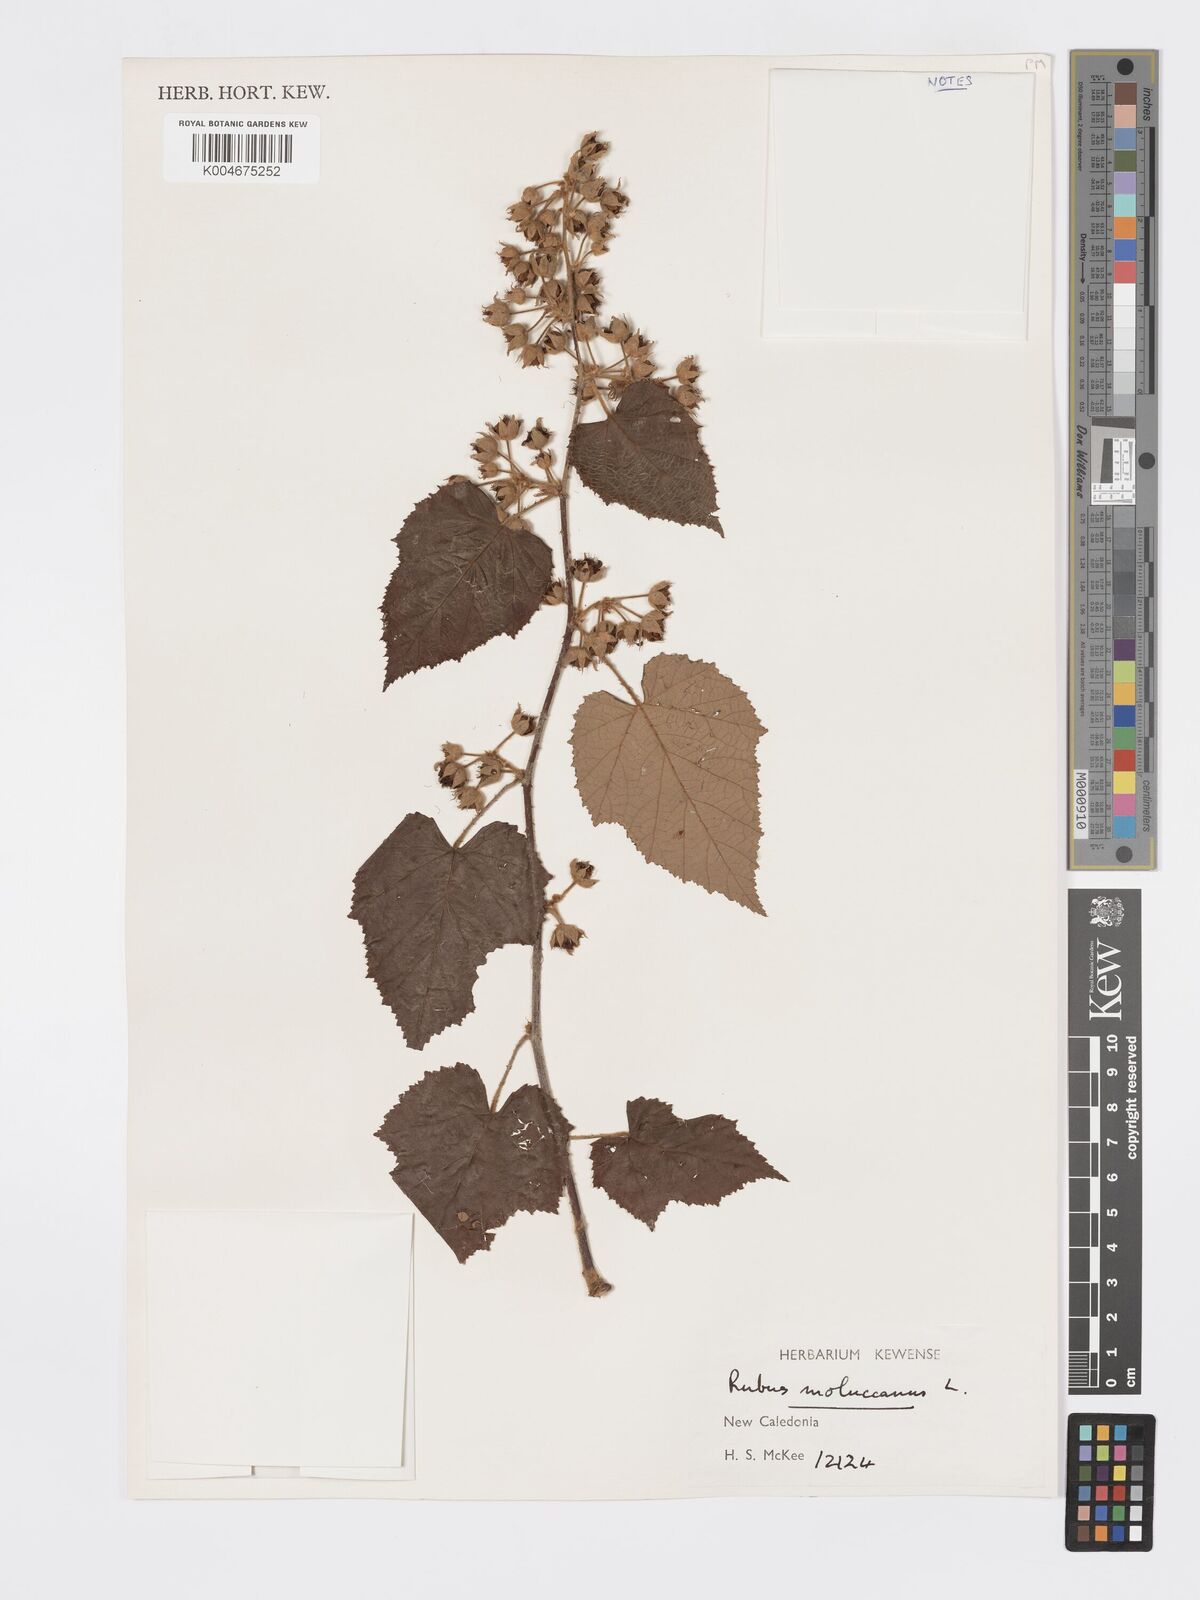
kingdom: Plantae
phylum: Tracheophyta
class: Magnoliopsida
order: Rosales
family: Rosaceae
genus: Rubus
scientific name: Rubus moluccanus
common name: Wild raspberry
